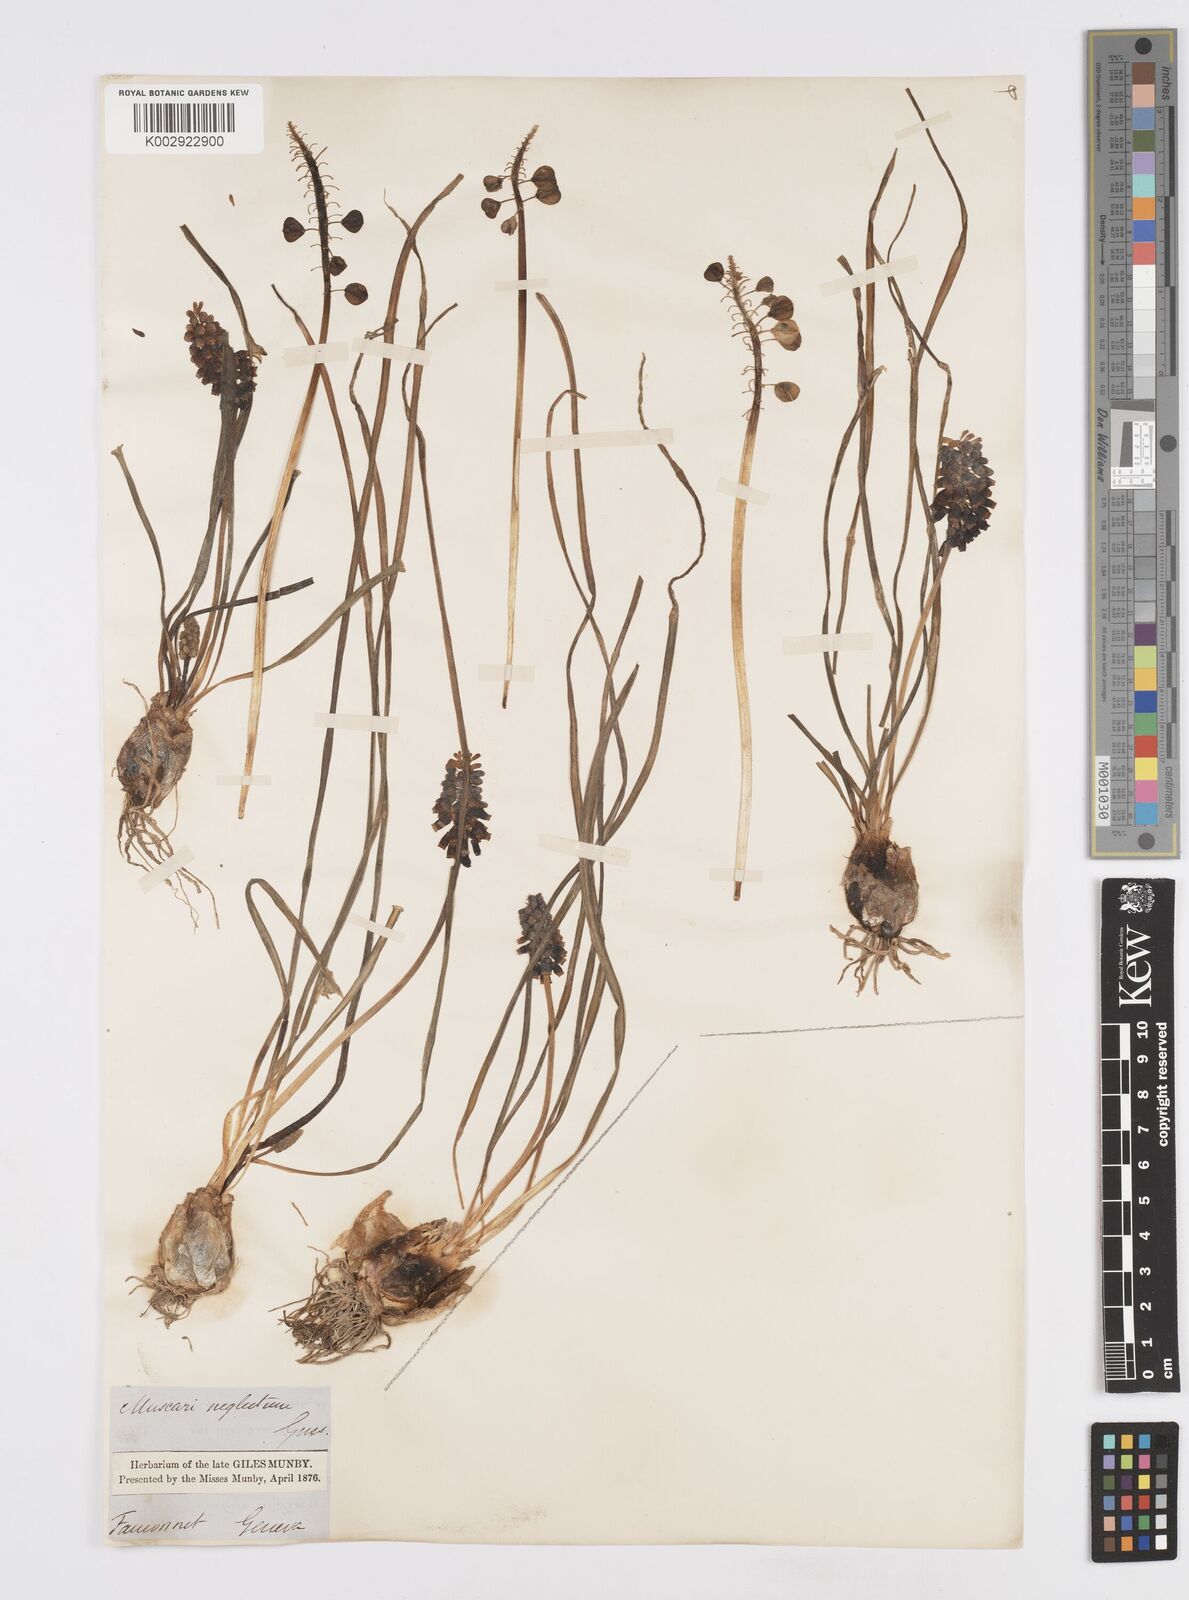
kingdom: Plantae
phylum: Tracheophyta
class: Liliopsida
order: Asparagales
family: Asparagaceae
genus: Muscarimia
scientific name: Muscarimia muscari
